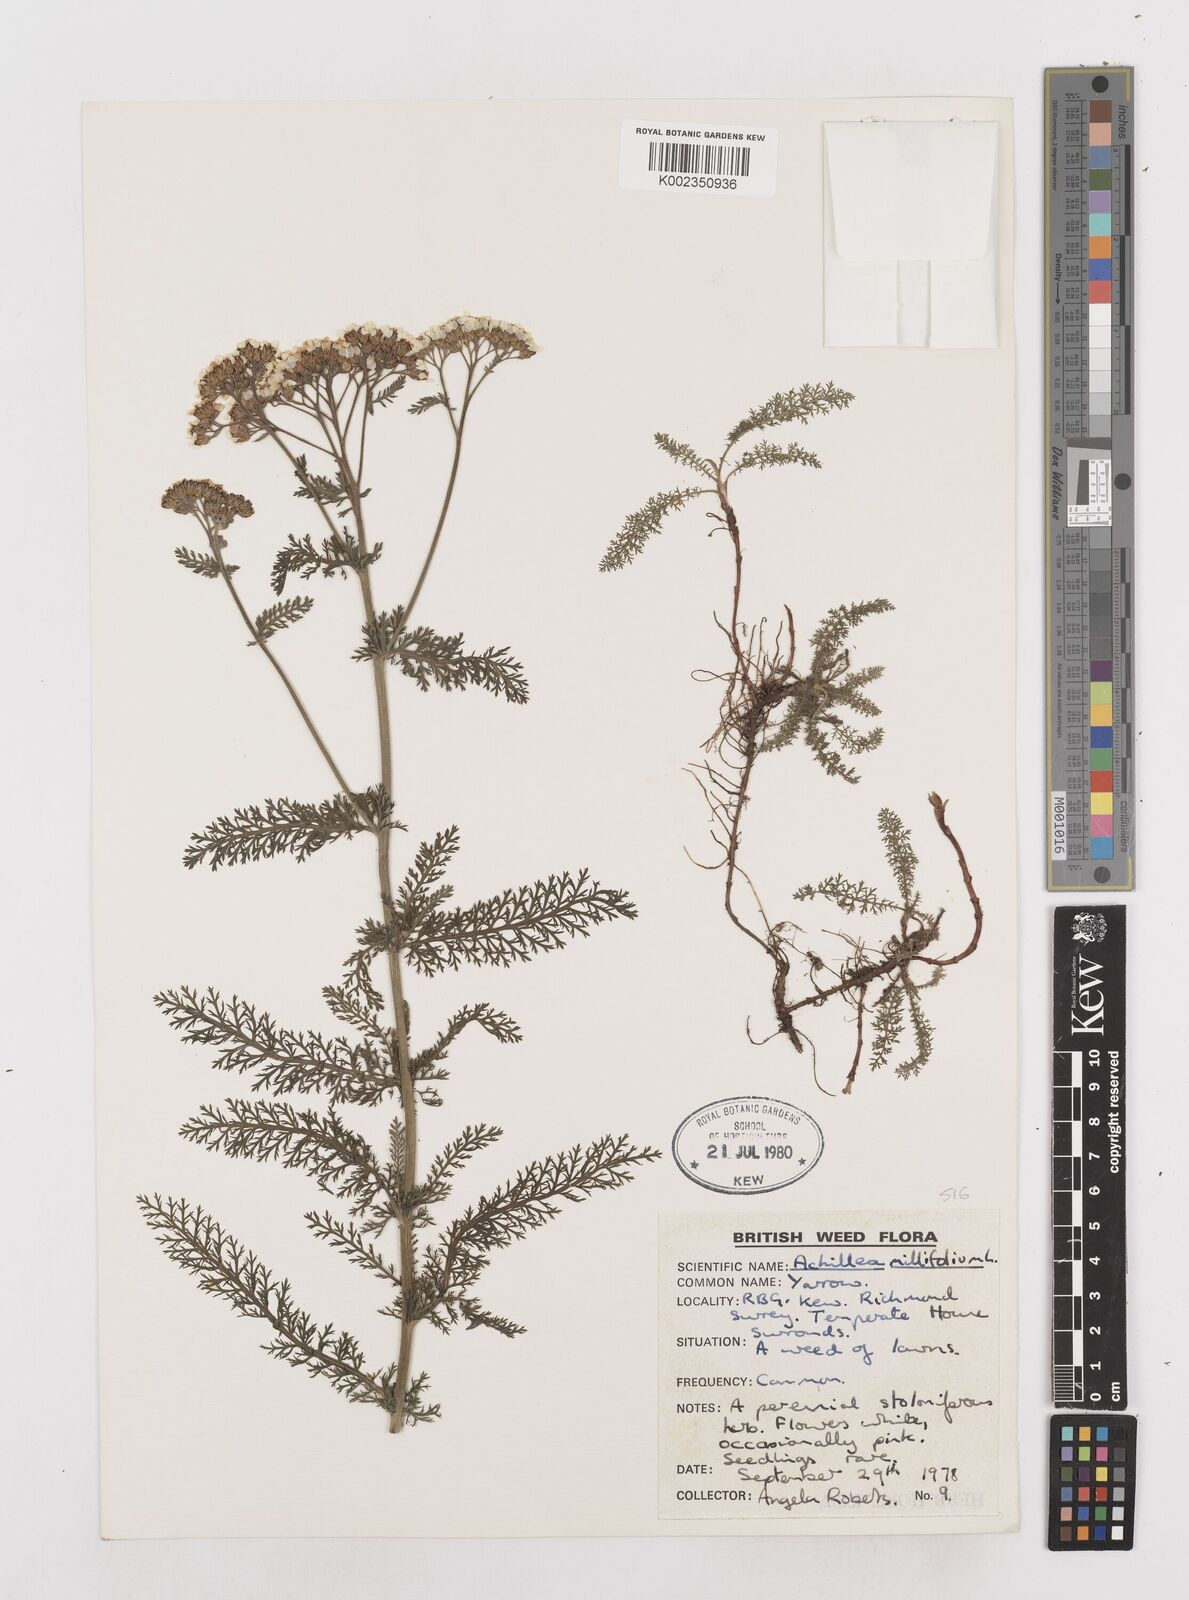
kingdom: Plantae
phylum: Tracheophyta
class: Magnoliopsida
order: Asterales
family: Asteraceae
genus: Achillea
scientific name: Achillea millefolium
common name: Yarrow
